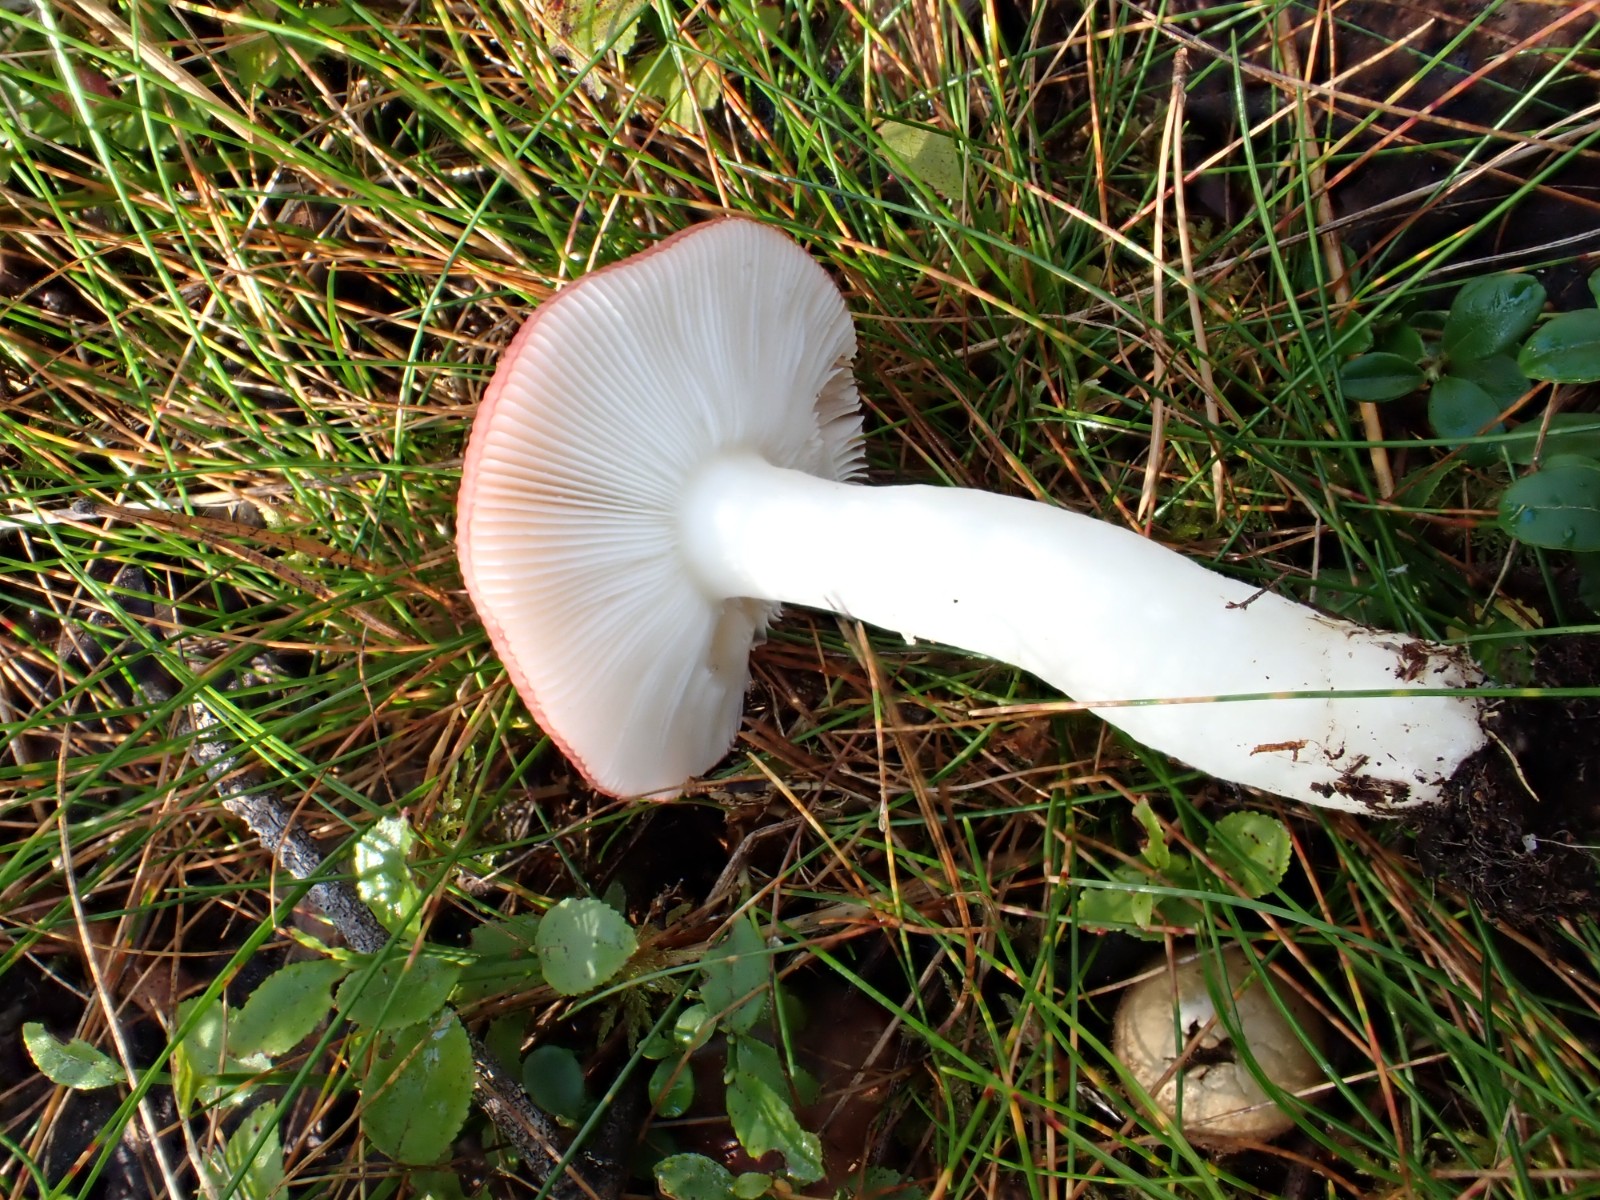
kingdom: Fungi
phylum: Basidiomycota
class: Agaricomycetes
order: Russulales
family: Russulaceae
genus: Russula
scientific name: Russula atrorubens
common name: sortrød skørhat
